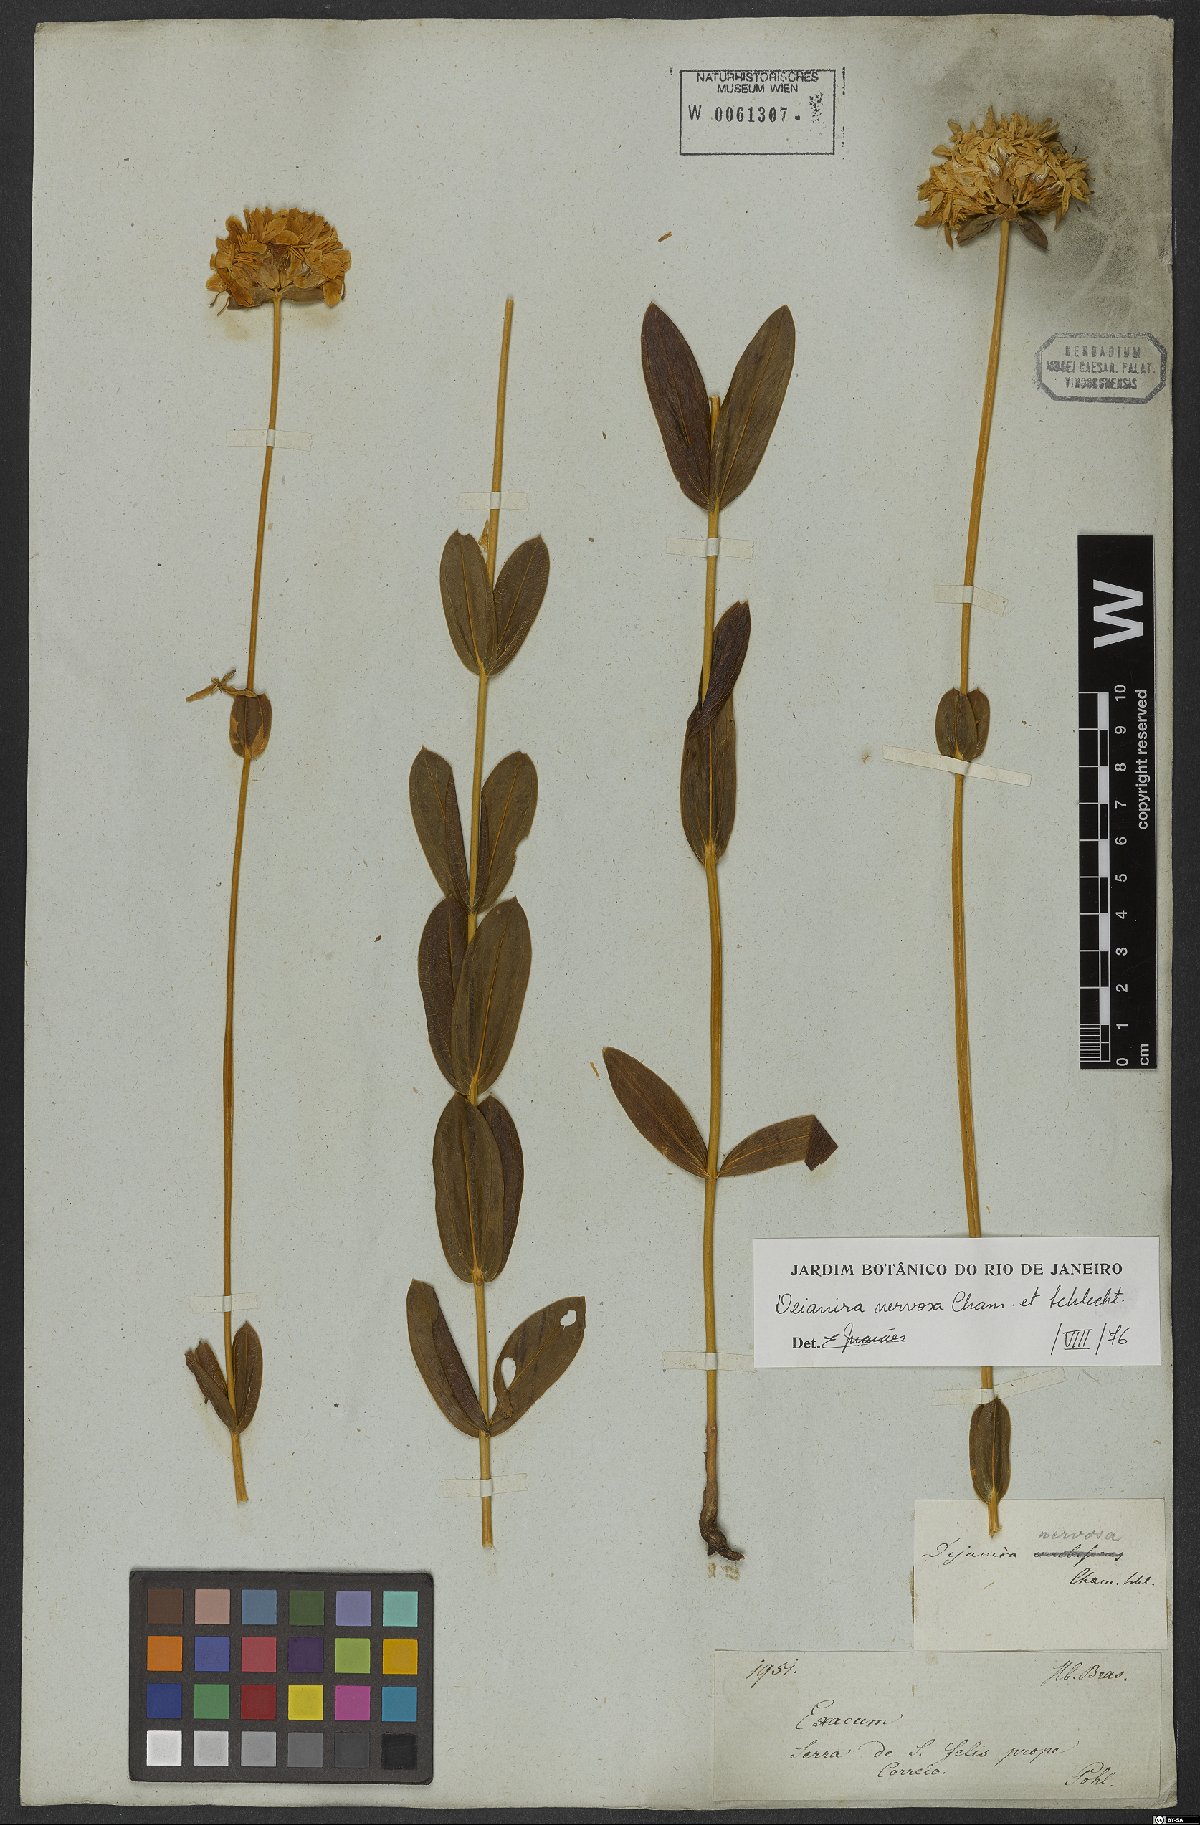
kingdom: Plantae
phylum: Tracheophyta
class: Magnoliopsida
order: Gentianales
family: Gentianaceae
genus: Deianira
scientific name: Deianira nervosa
